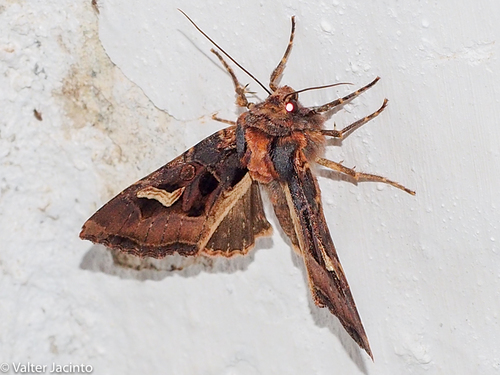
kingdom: Animalia
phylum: Arthropoda
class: Insecta
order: Lepidoptera
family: Noctuidae
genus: Trigonophora
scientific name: Trigonophora flammea
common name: Flame brocade
